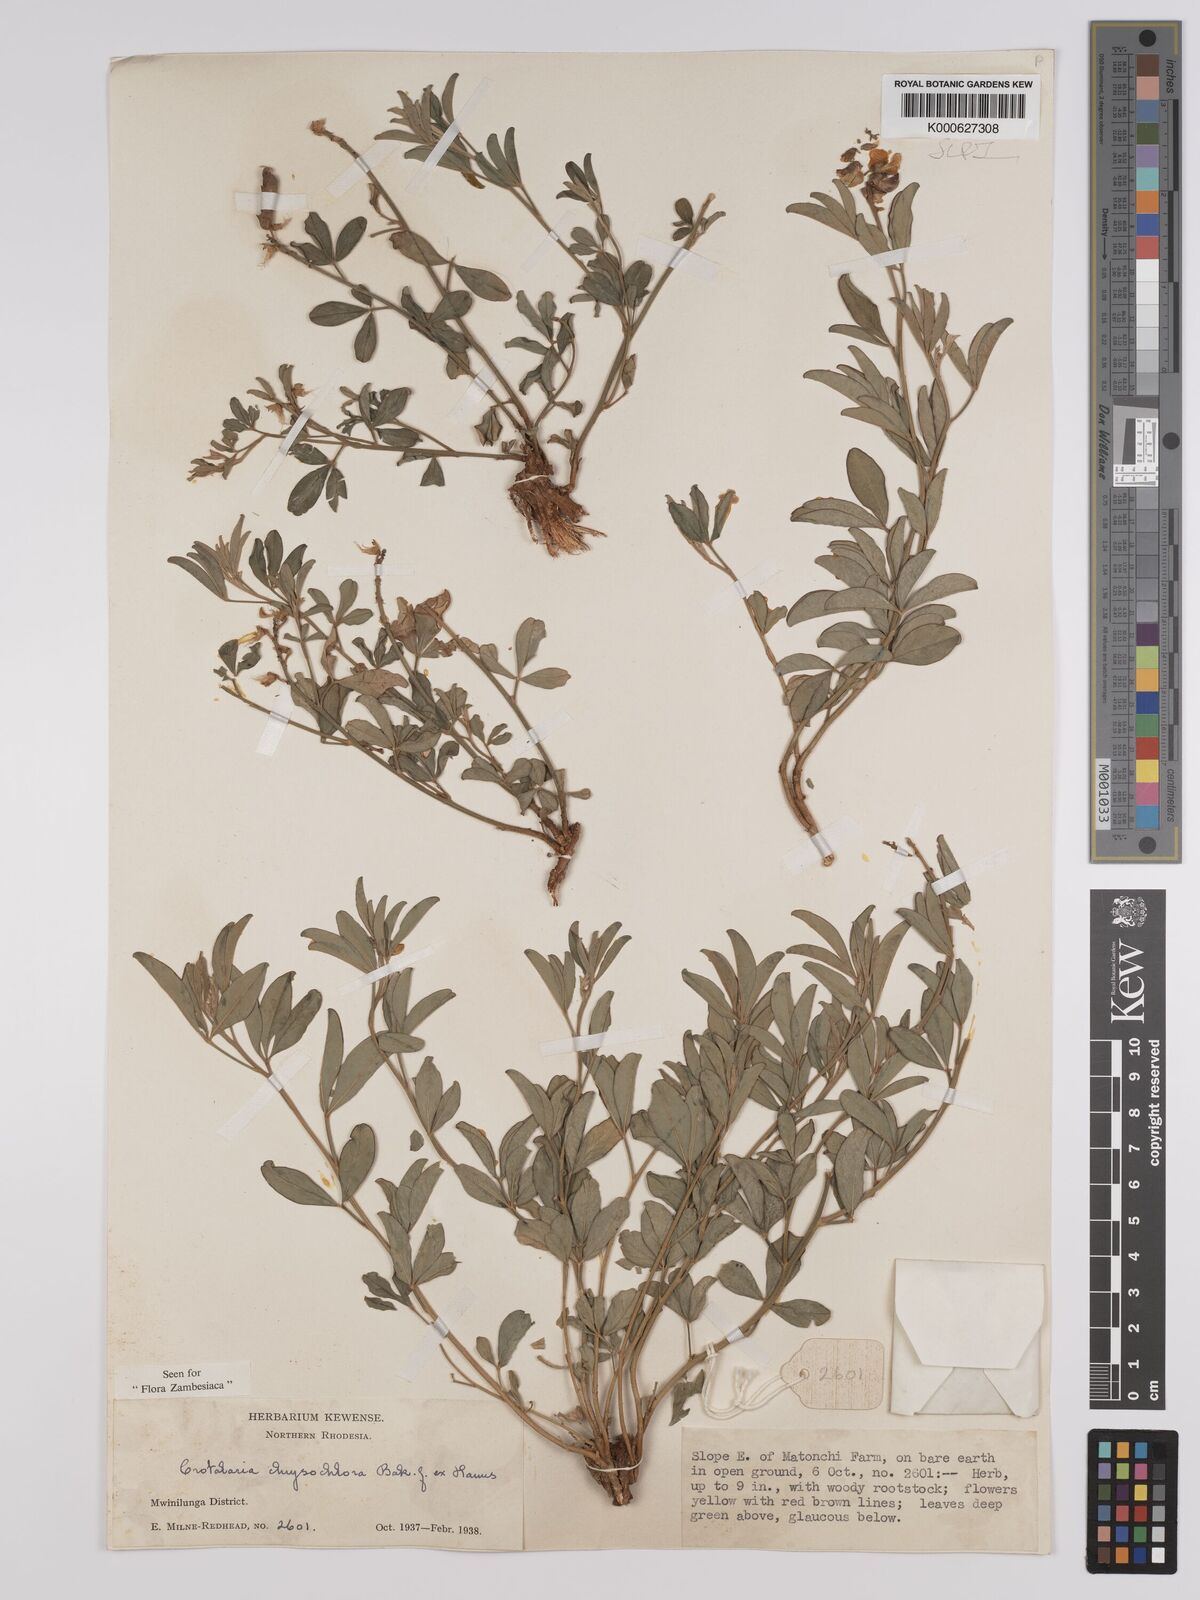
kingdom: Plantae
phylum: Tracheophyta
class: Magnoliopsida
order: Fabales
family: Fabaceae
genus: Crotalaria
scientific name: Crotalaria chrysochlora ex
